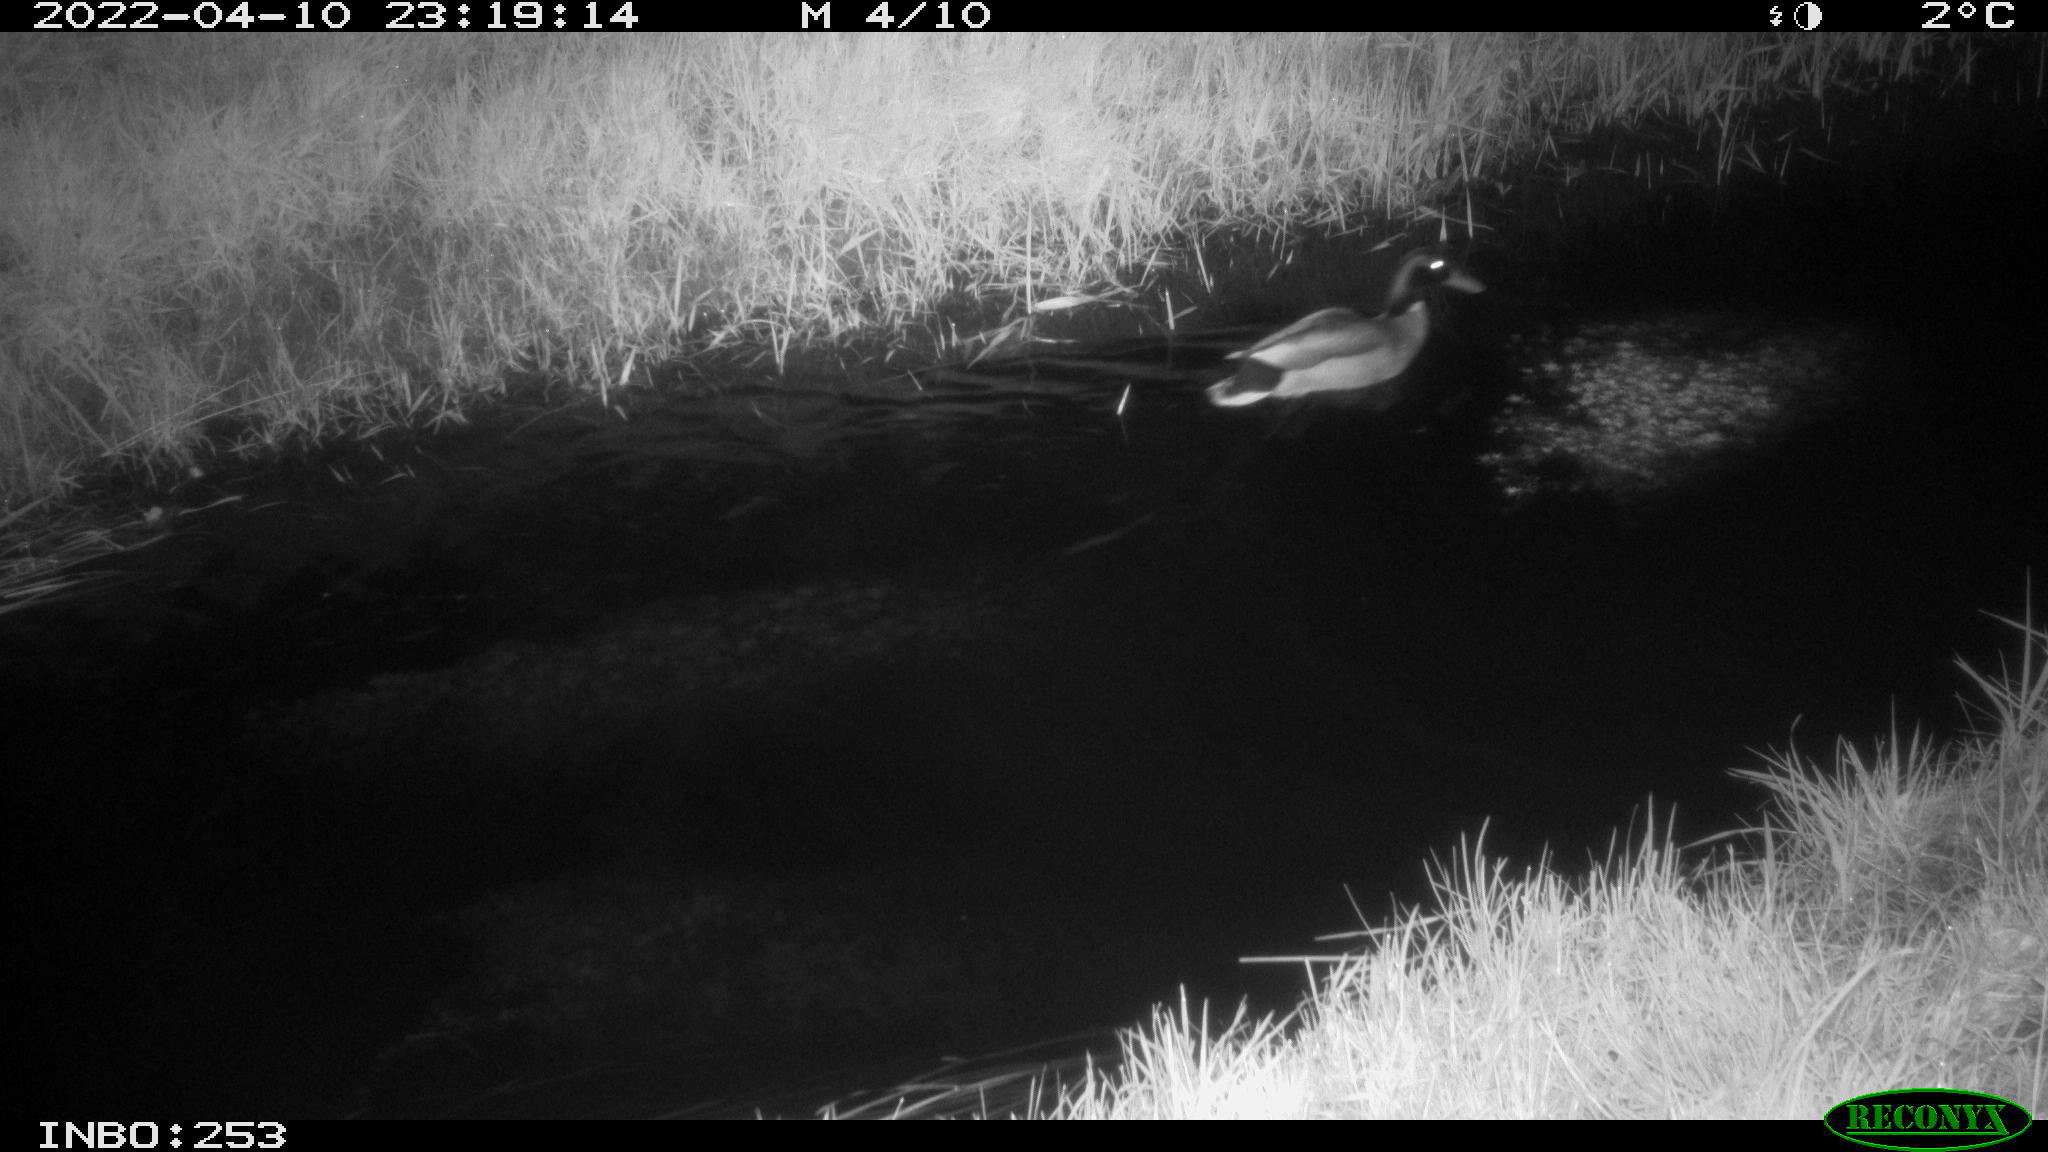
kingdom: Animalia
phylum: Chordata
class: Aves
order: Anseriformes
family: Anatidae
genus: Anas
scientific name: Anas platyrhynchos
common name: Mallard
